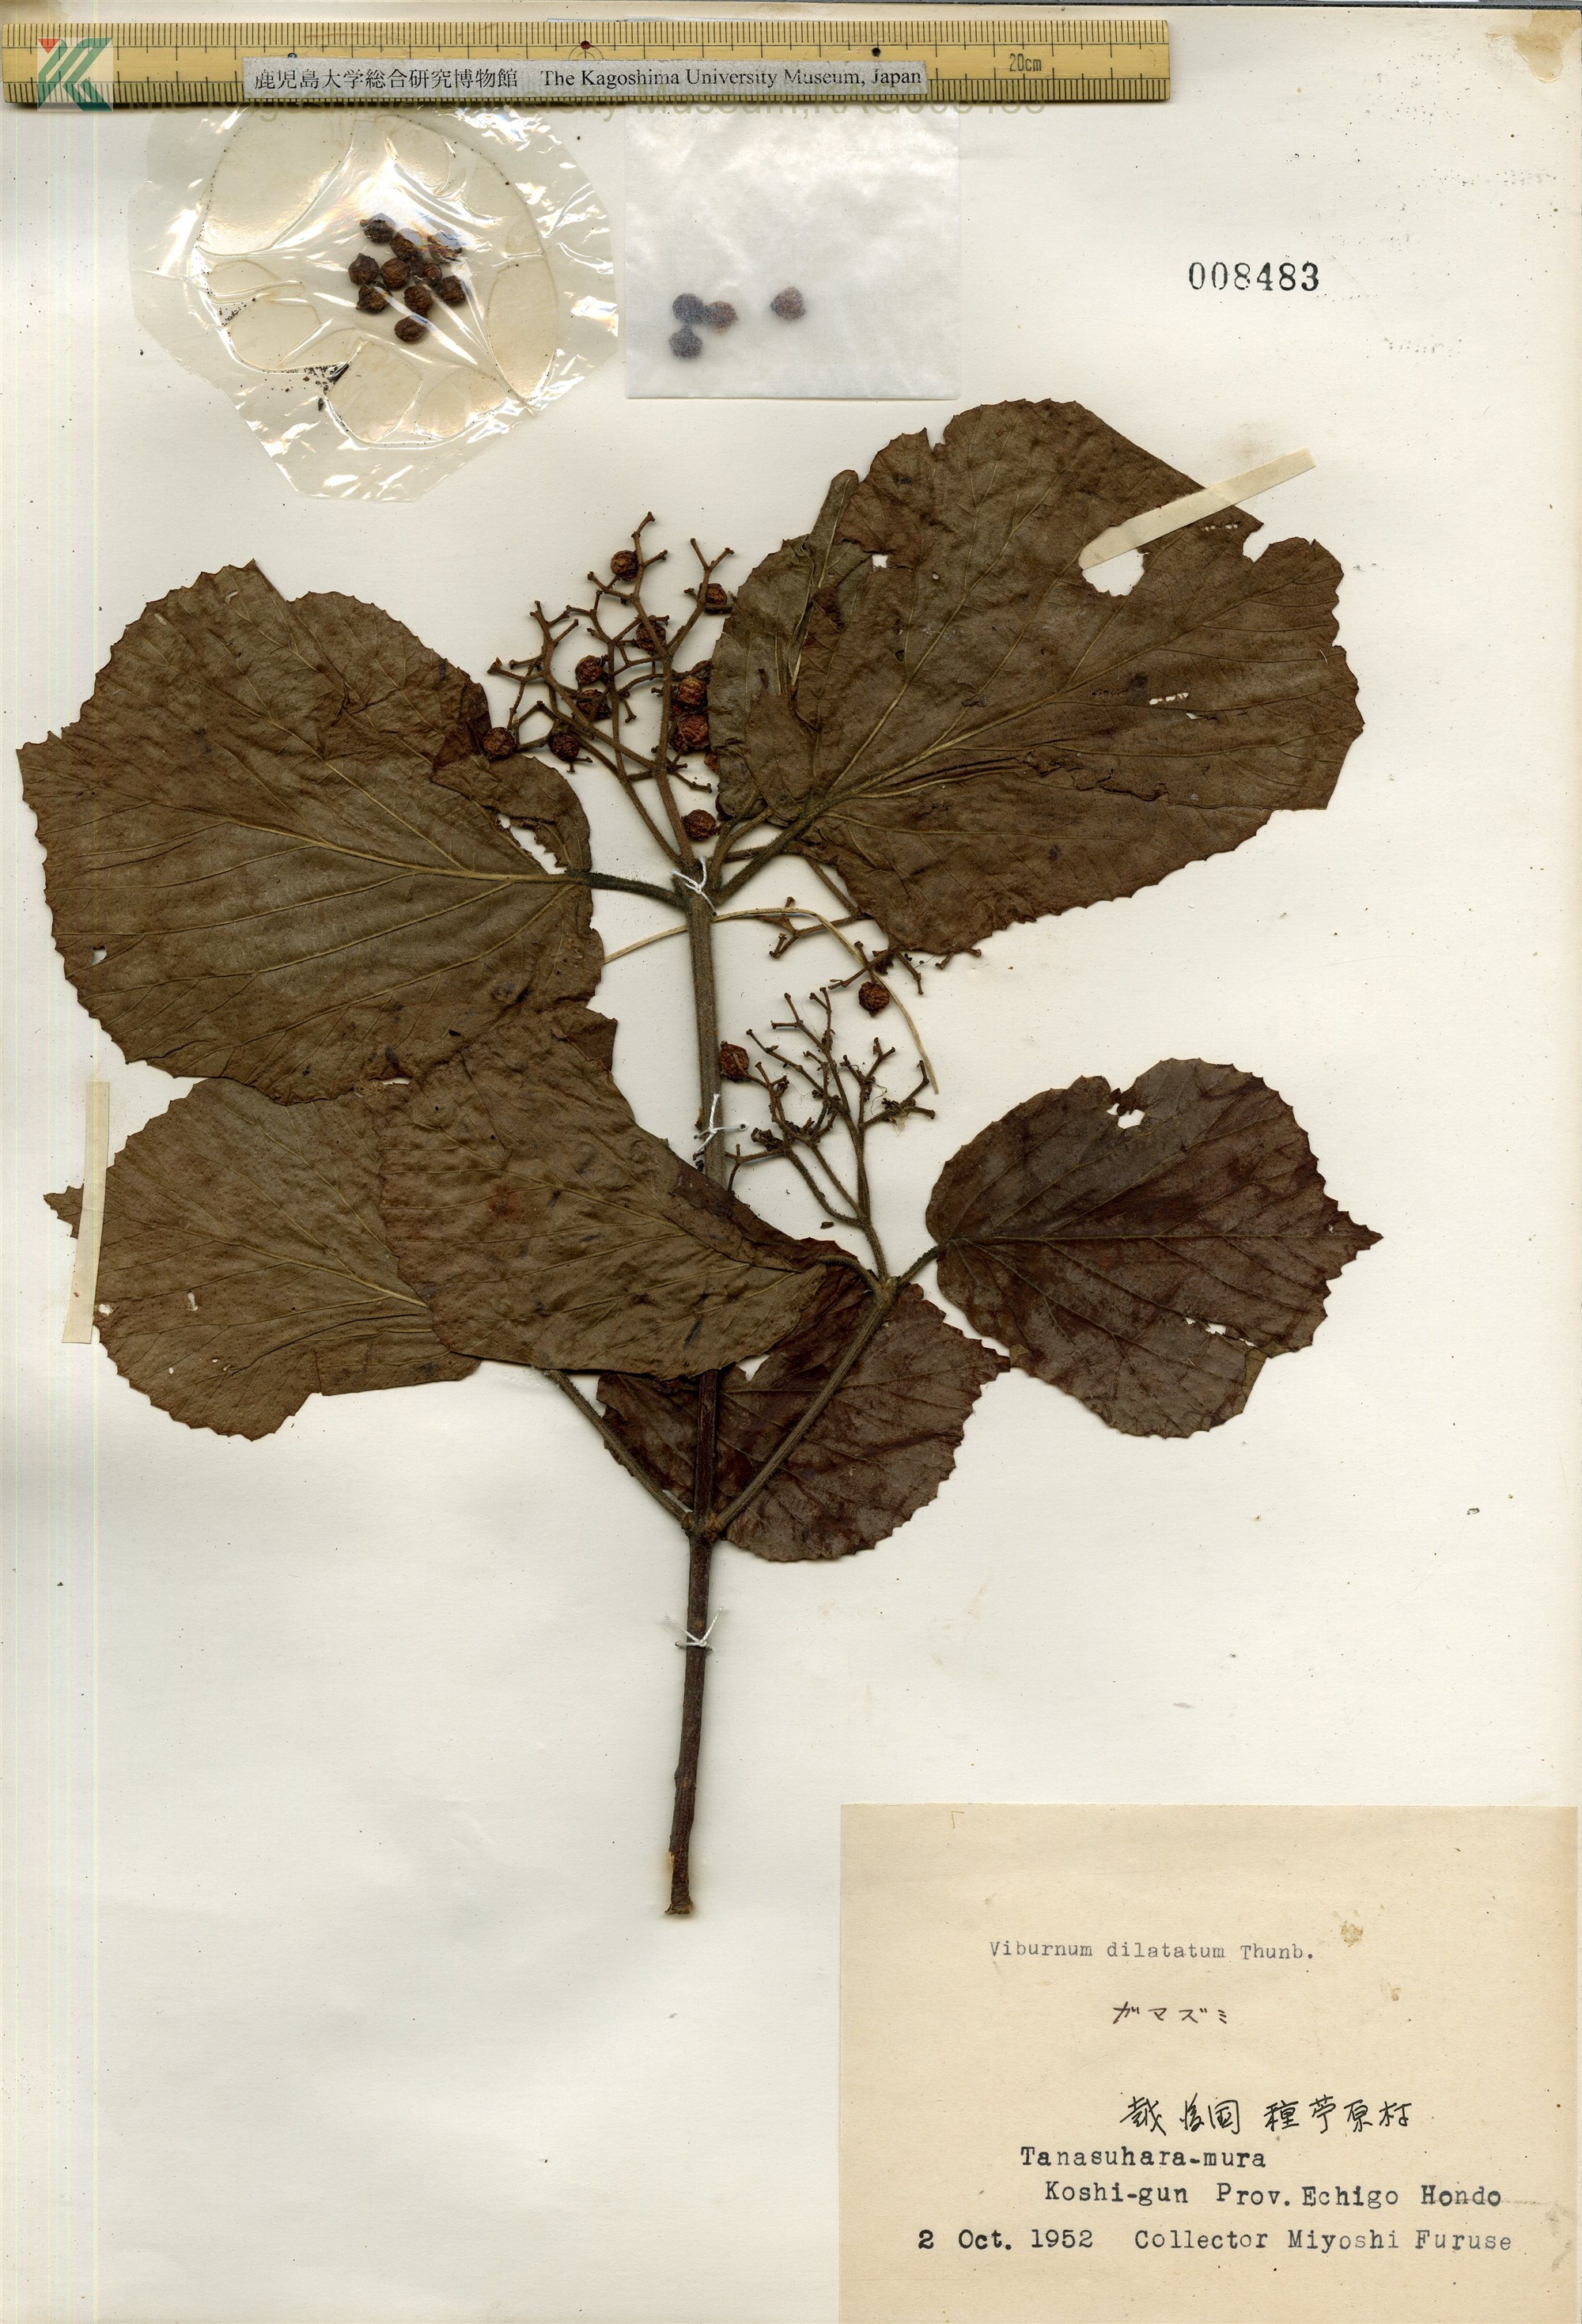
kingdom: Plantae
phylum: Tracheophyta
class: Magnoliopsida
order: Dipsacales
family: Viburnaceae
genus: Viburnum
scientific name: Viburnum dilatatum
